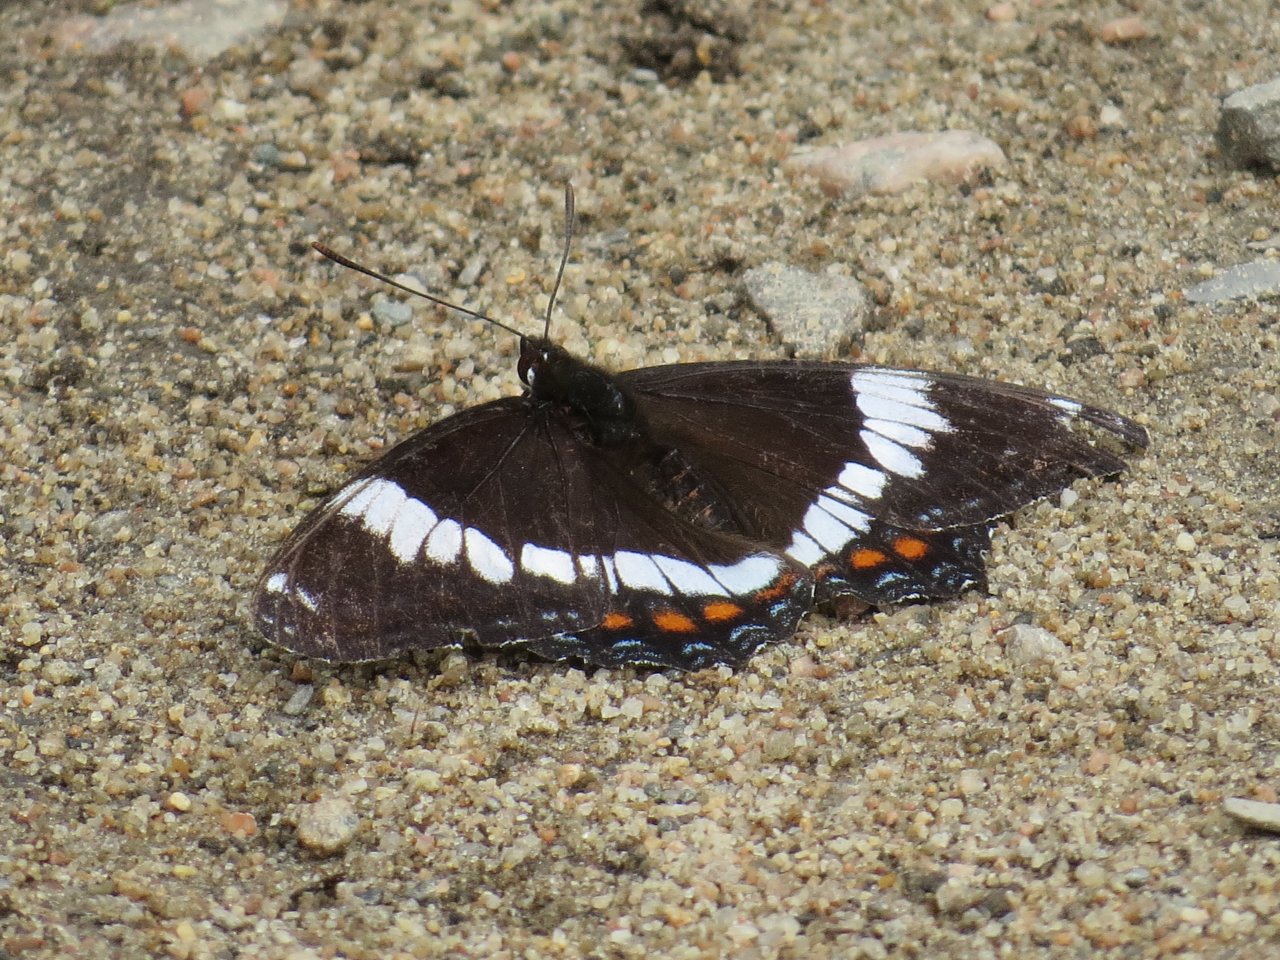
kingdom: Animalia
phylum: Arthropoda
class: Insecta
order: Lepidoptera
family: Nymphalidae
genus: Limenitis
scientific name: Limenitis arthemis
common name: Red-spotted Admiral
